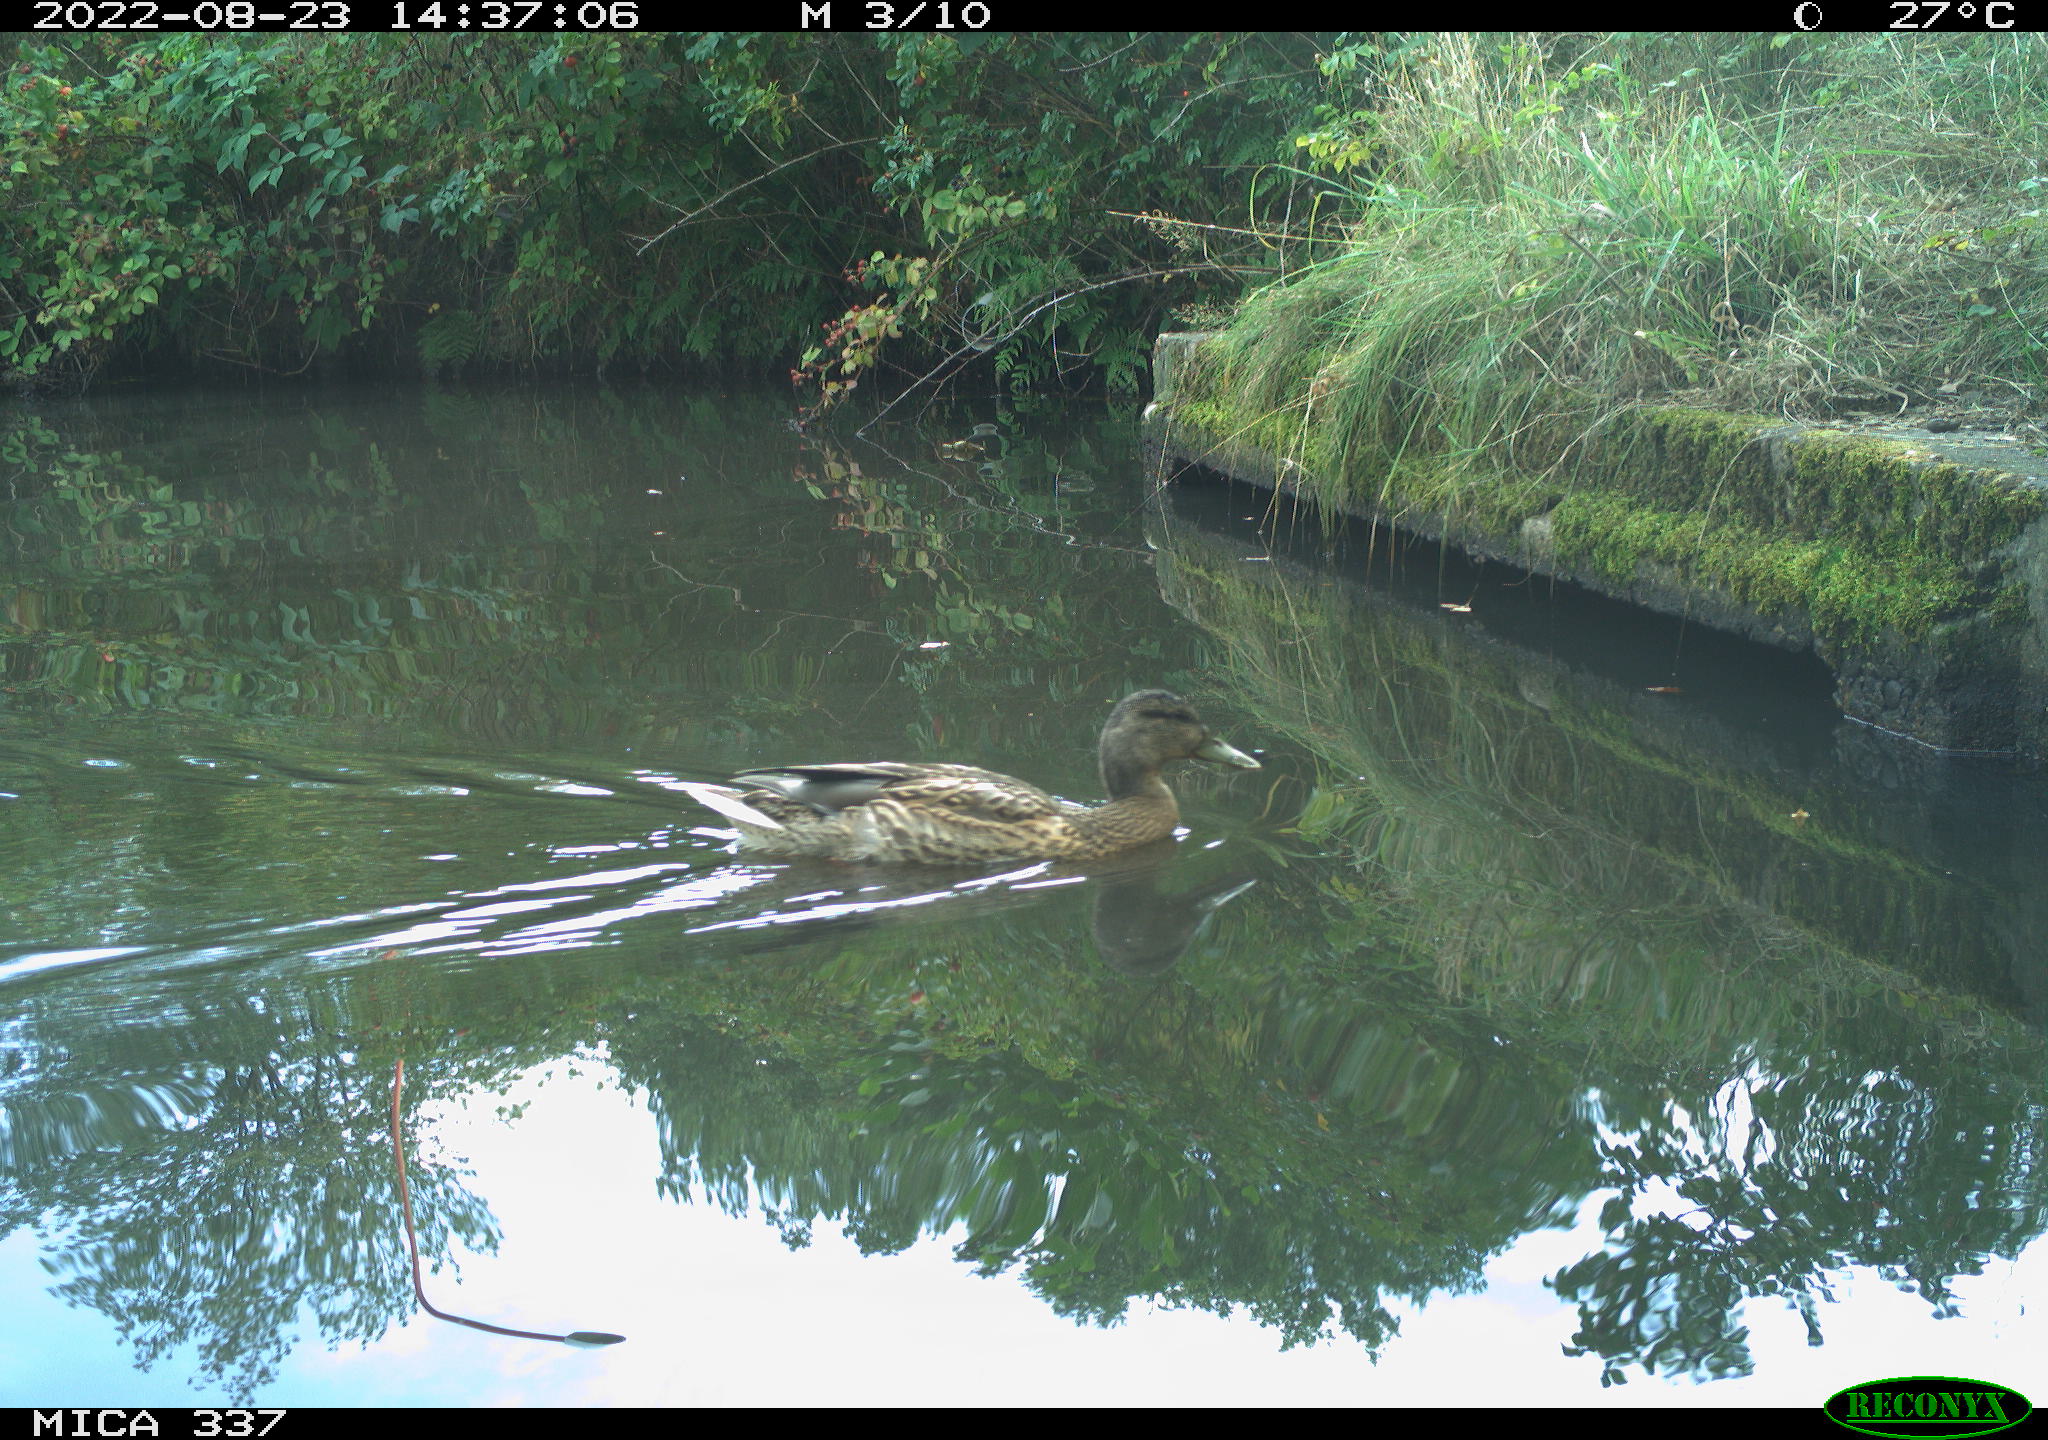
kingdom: Animalia
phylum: Chordata
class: Aves
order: Anseriformes
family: Anatidae
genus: Anas
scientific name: Anas platyrhynchos
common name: Mallard
